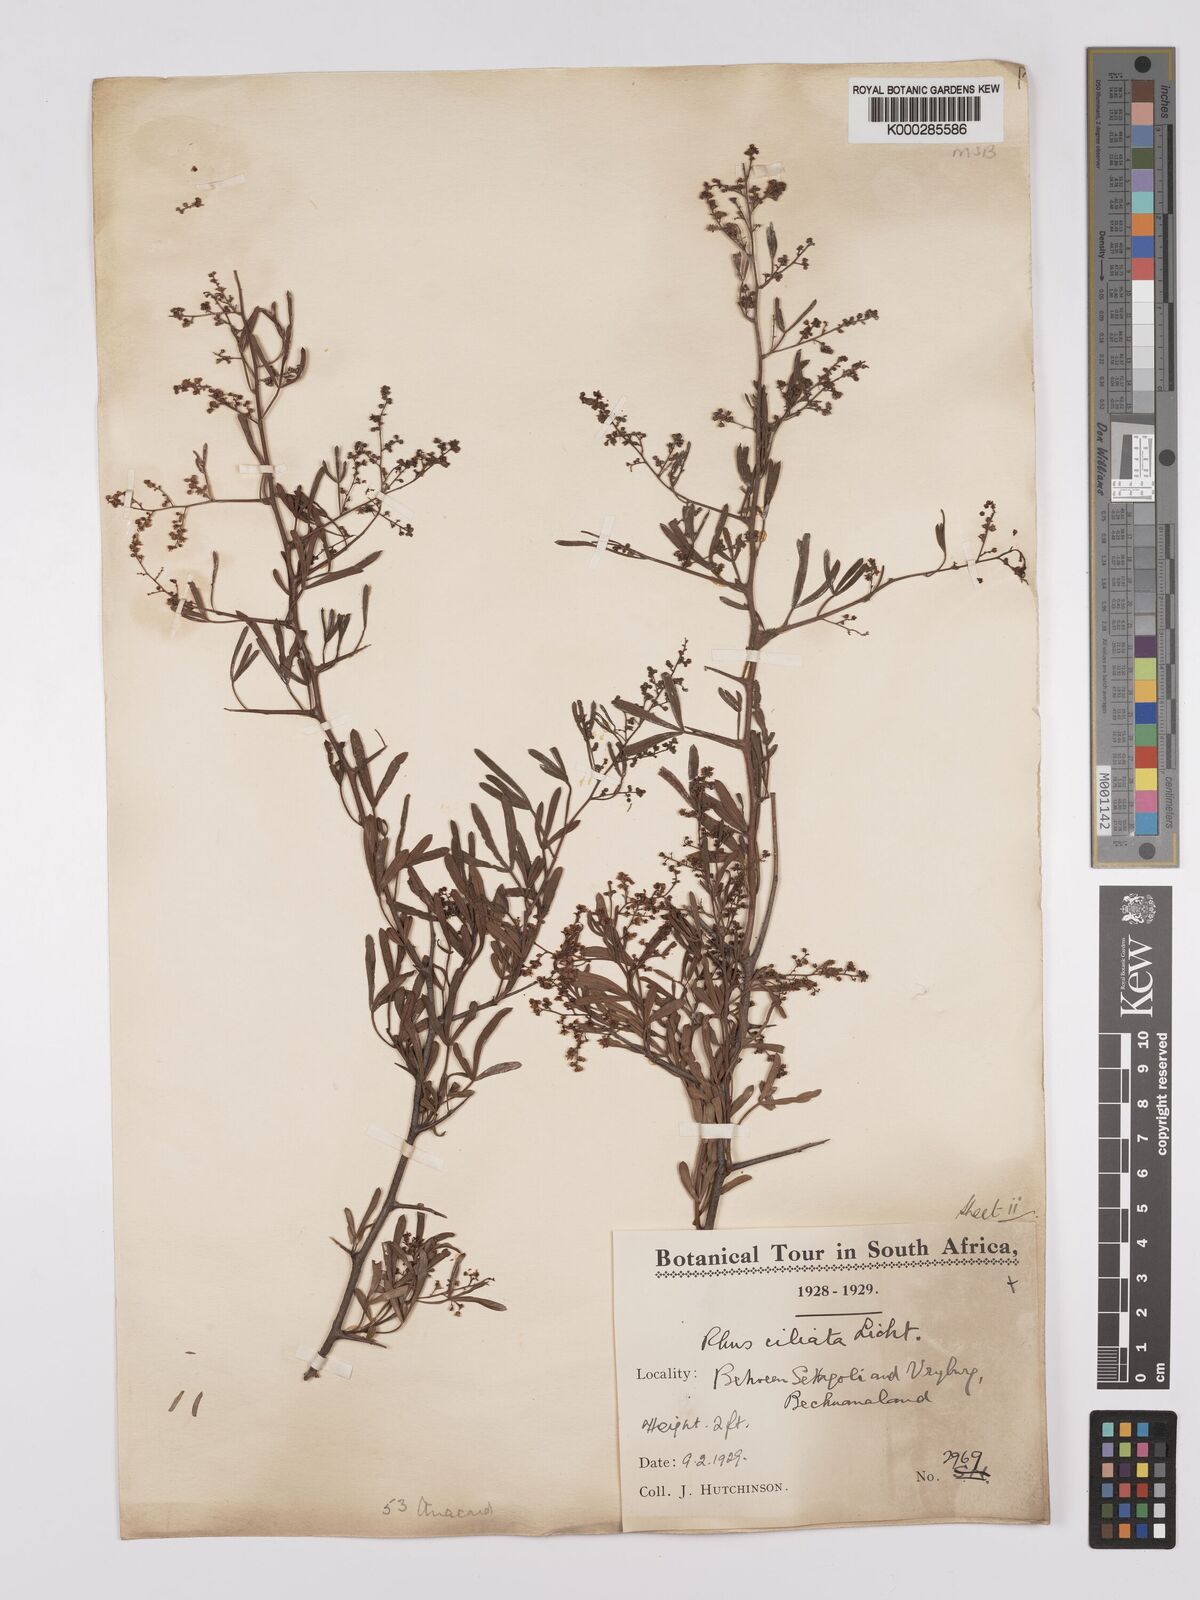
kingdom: Plantae
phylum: Tracheophyta
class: Magnoliopsida
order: Sapindales
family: Anacardiaceae
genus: Searsia
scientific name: Searsia ciliata
